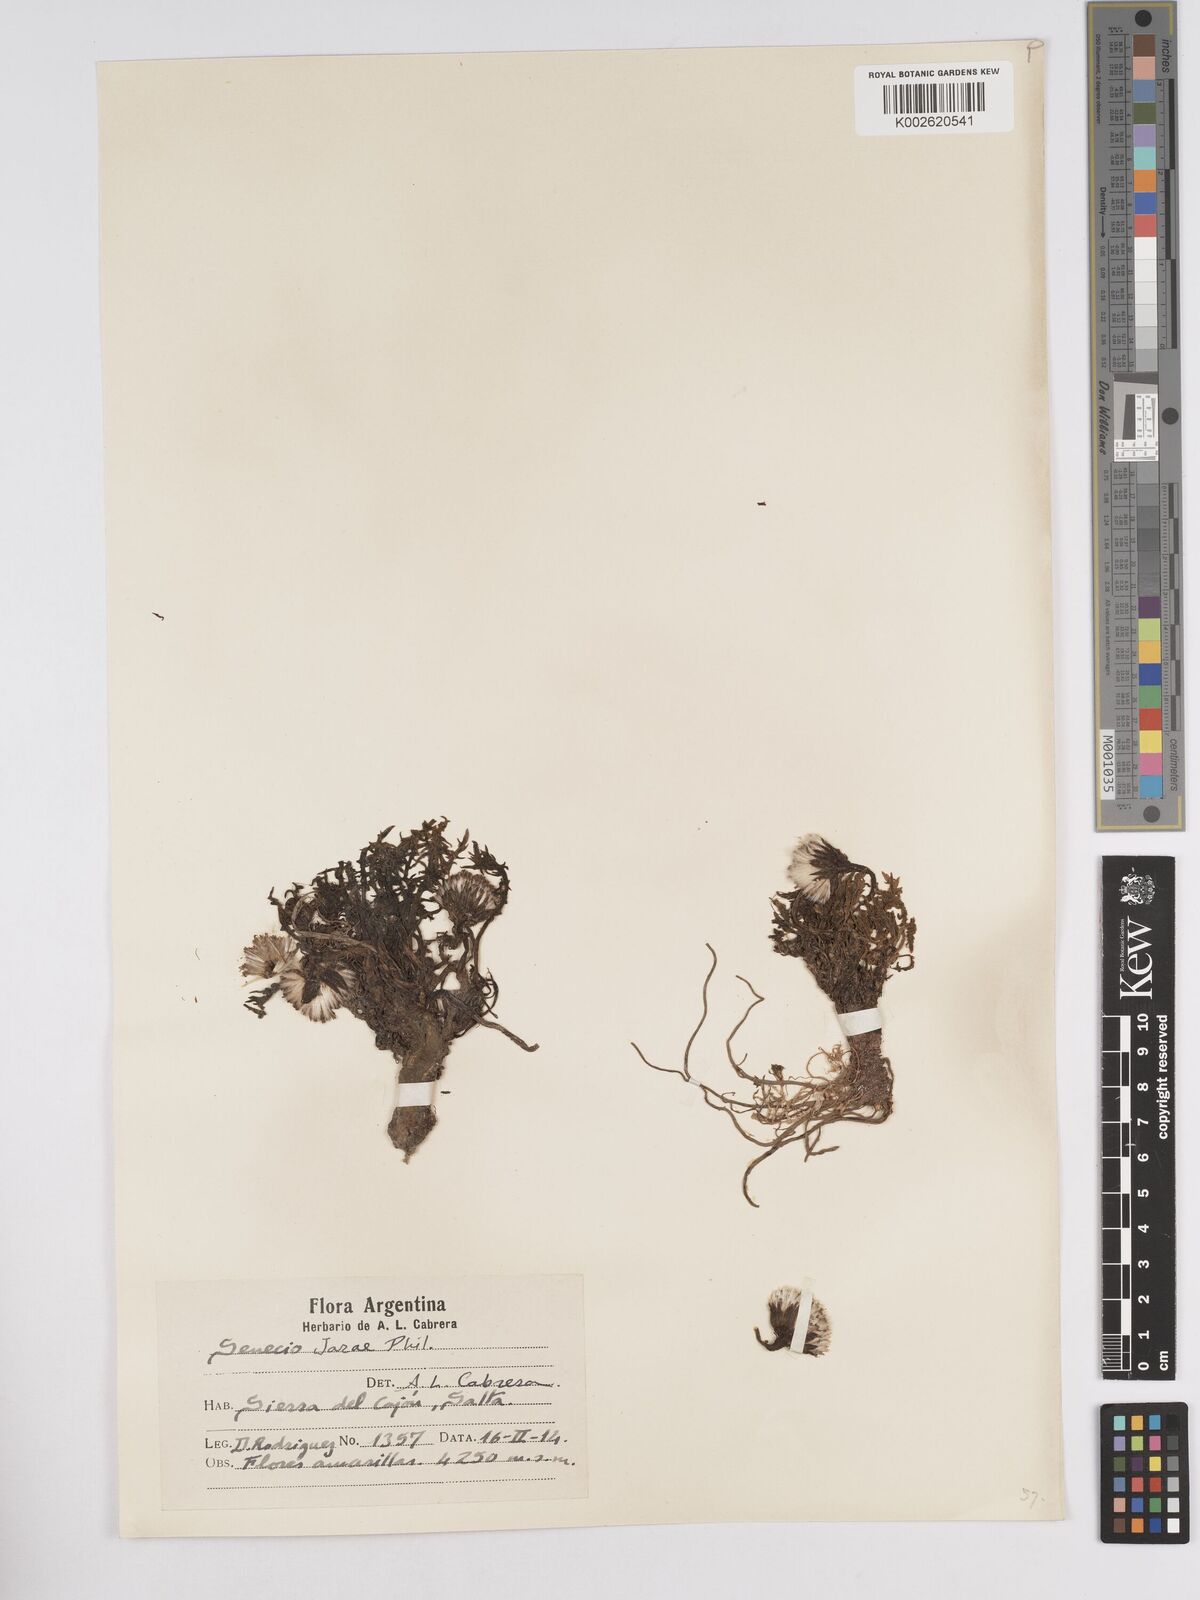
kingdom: Plantae
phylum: Tracheophyta
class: Magnoliopsida
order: Asterales
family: Asteraceae
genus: Senecio
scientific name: Senecio jarae
